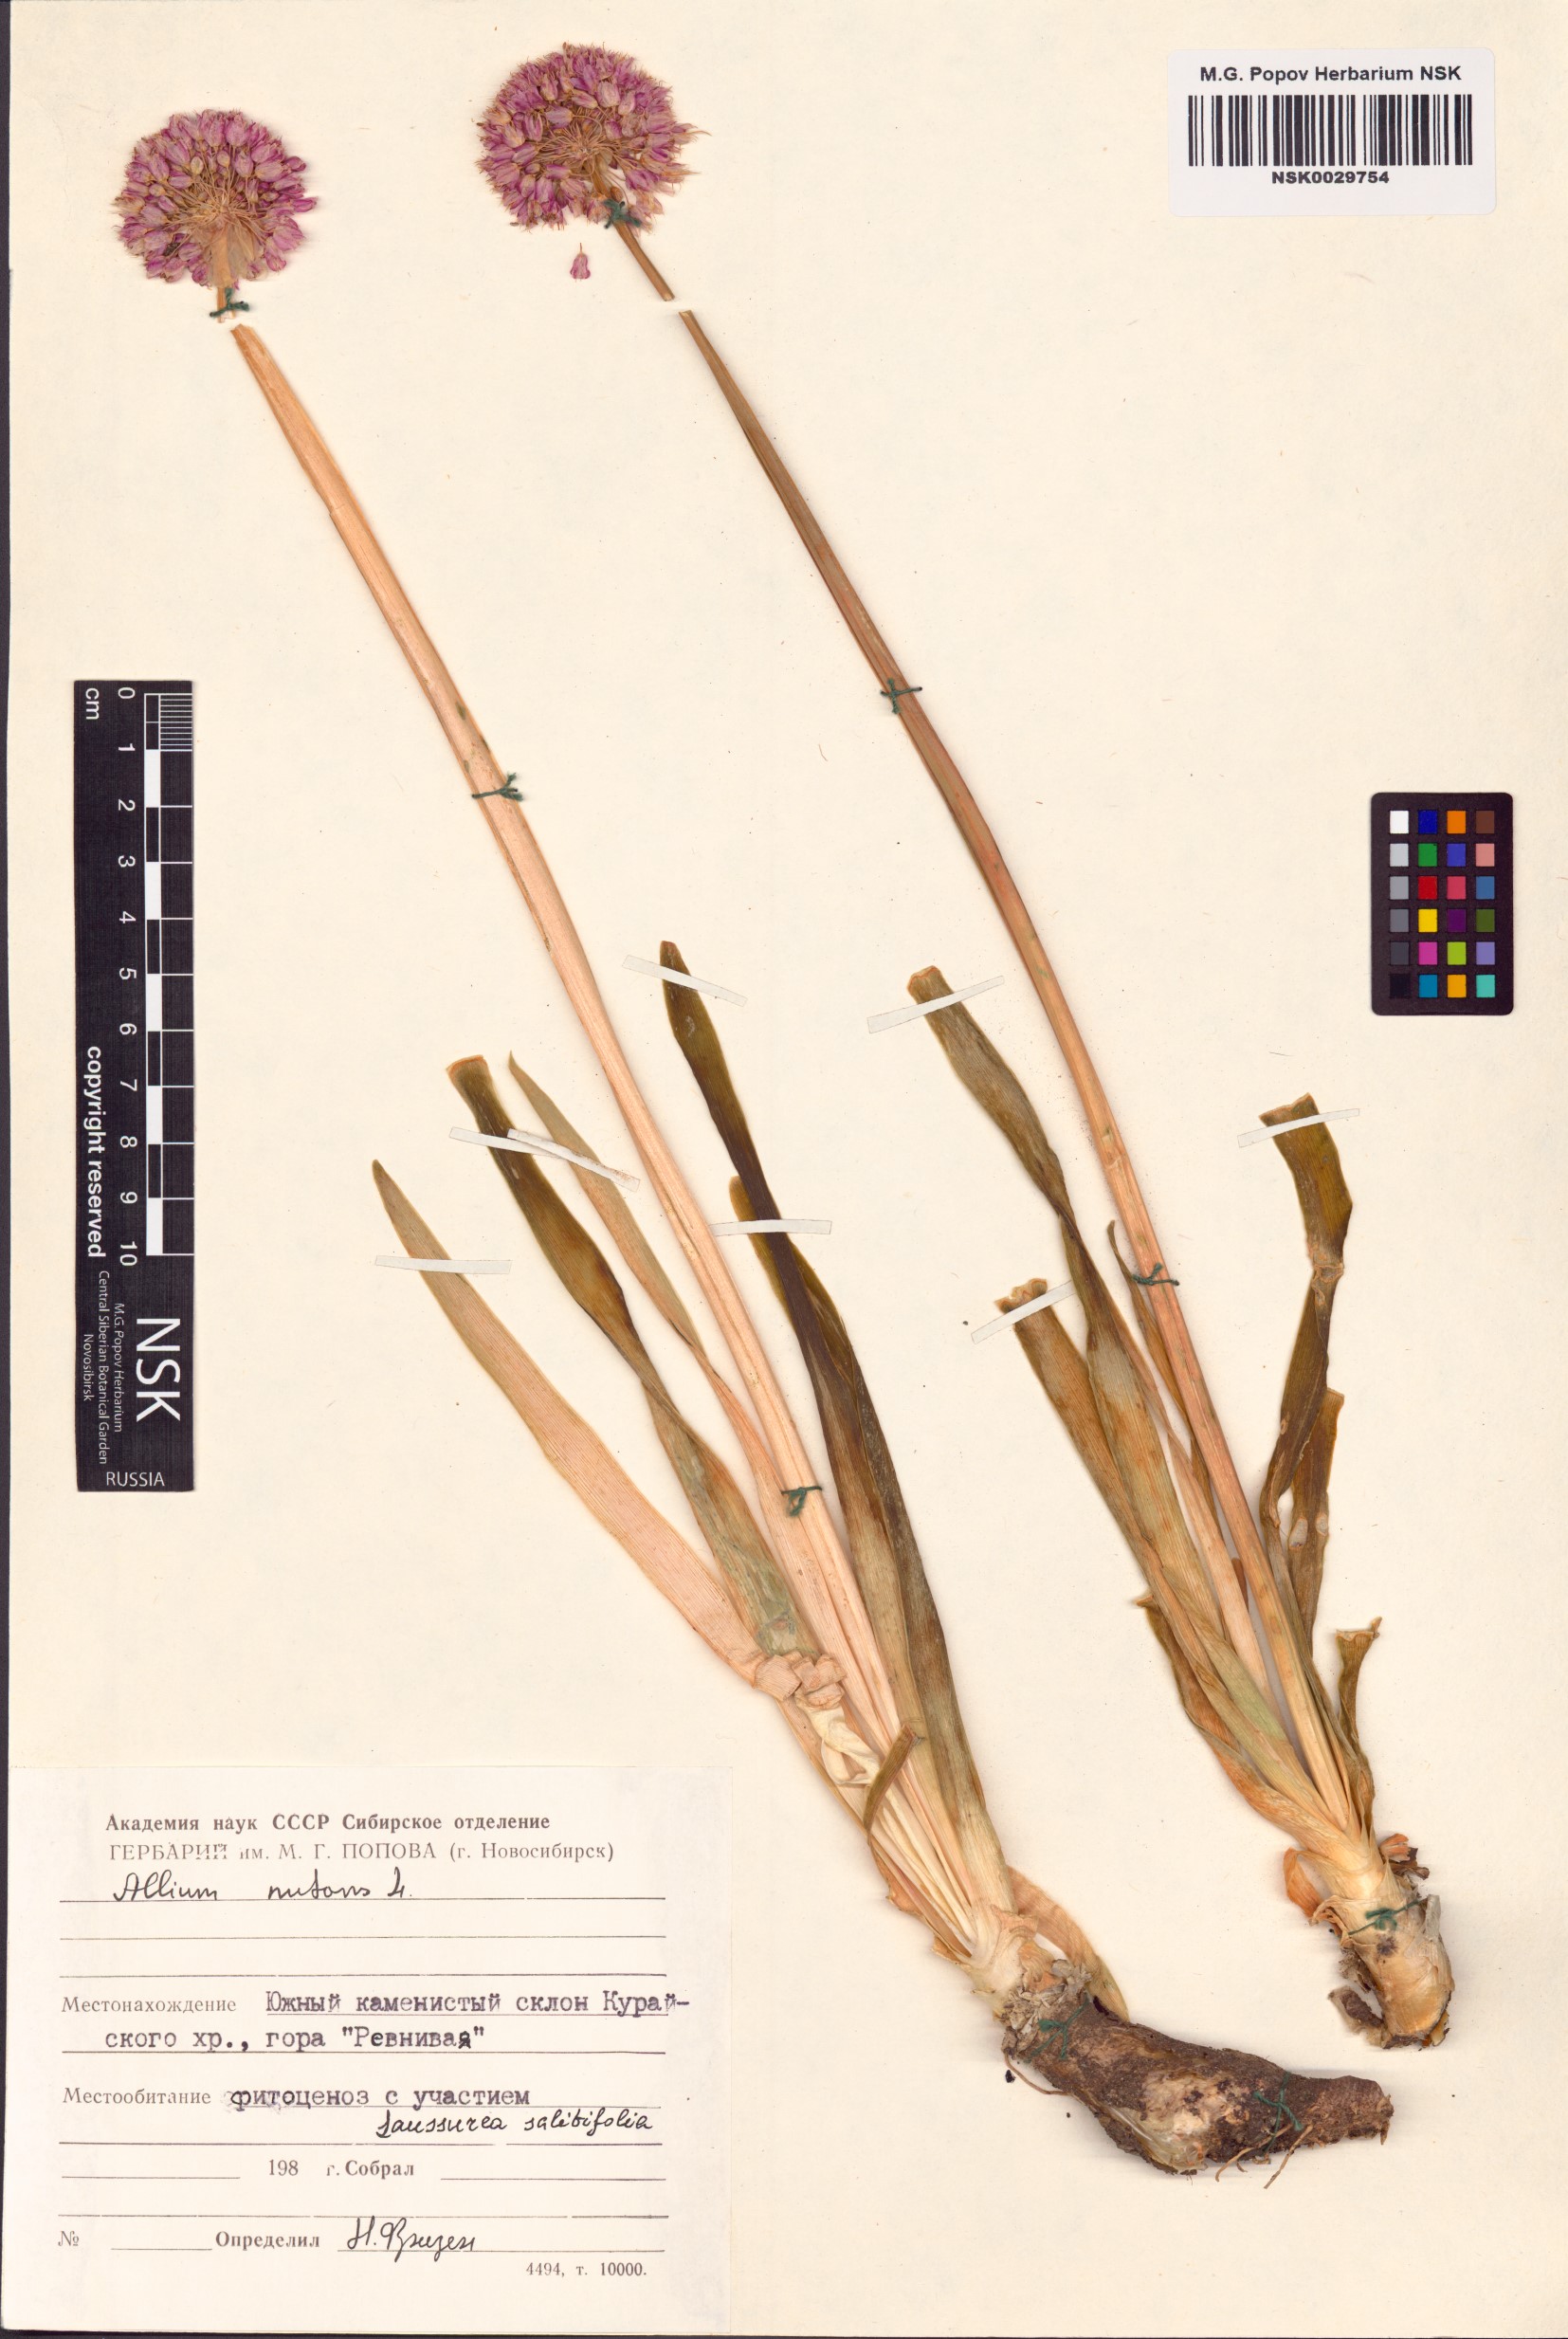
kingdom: Plantae
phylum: Tracheophyta
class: Liliopsida
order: Asparagales
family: Amaryllidaceae
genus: Allium
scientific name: Allium nutans
